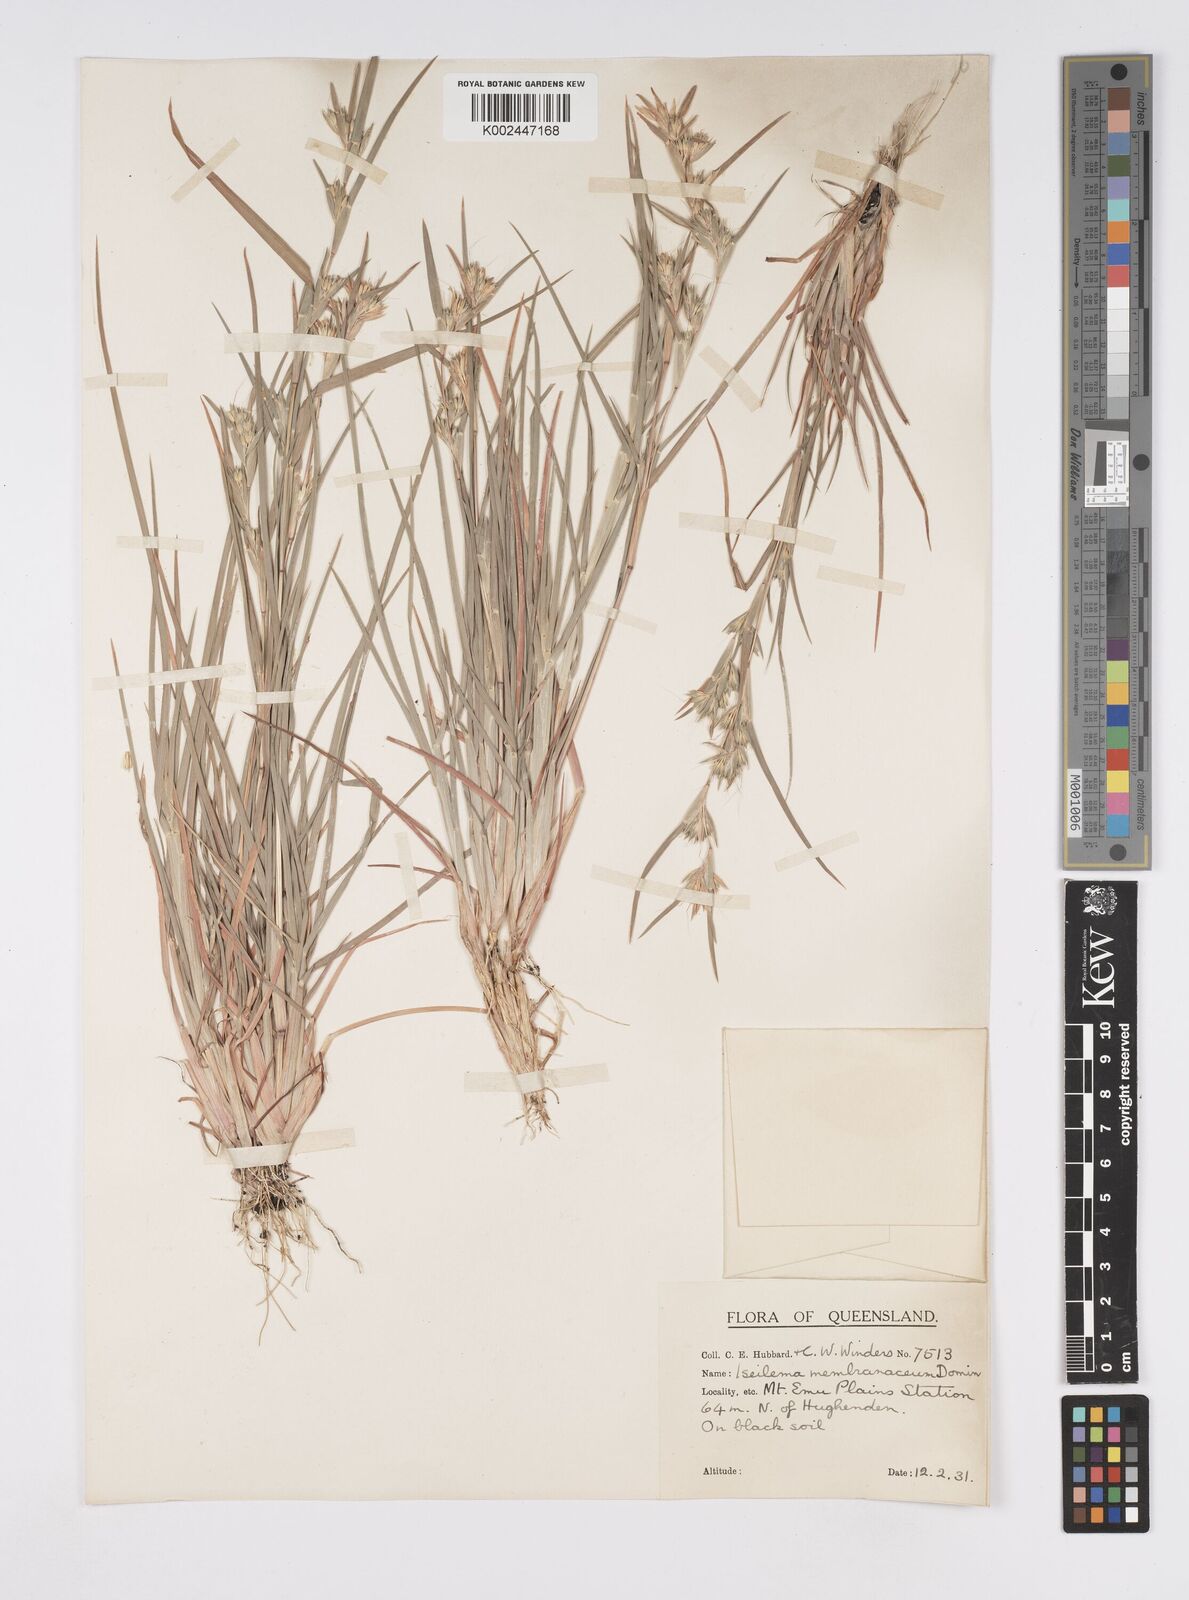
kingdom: Plantae
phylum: Tracheophyta
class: Liliopsida
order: Poales
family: Poaceae
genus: Iseilema
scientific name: Iseilema membranaceum
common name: Small flinders grass
